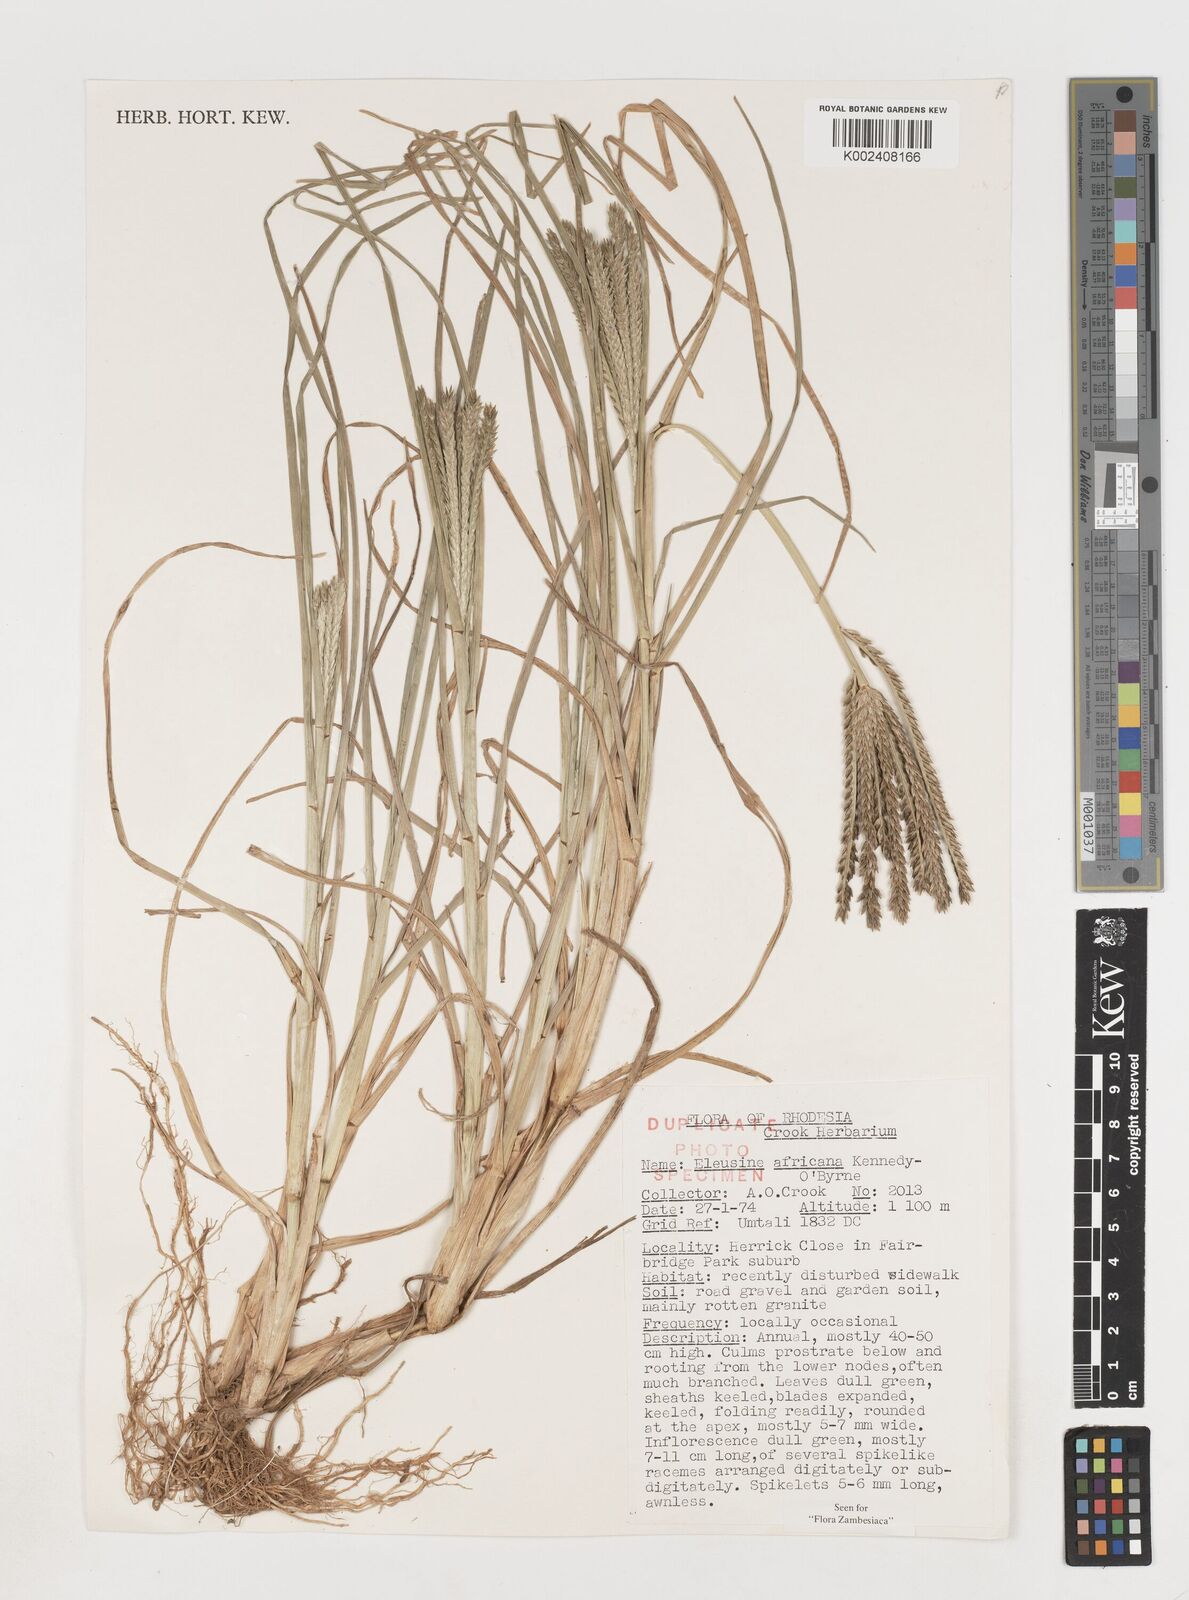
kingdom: Plantae
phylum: Tracheophyta
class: Liliopsida
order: Poales
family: Poaceae
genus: Eleusine
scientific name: Eleusine africana
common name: Wild african finger millet
